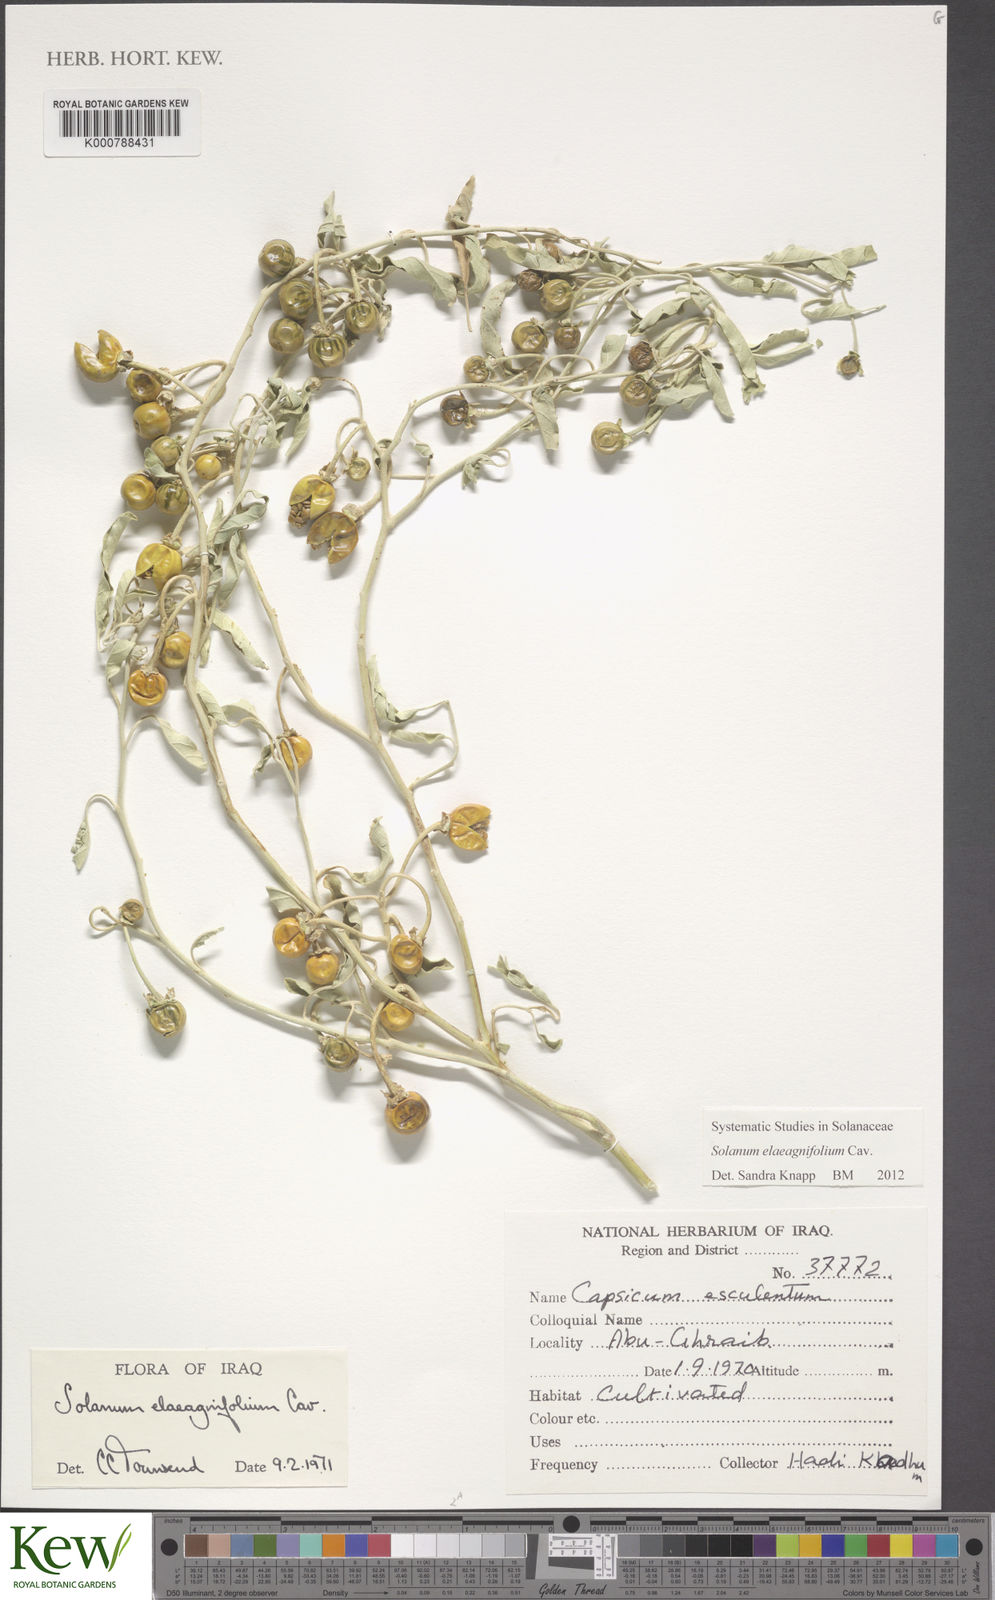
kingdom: Plantae
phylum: Tracheophyta
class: Magnoliopsida
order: Solanales
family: Solanaceae
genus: Solanum
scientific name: Solanum elaeagnifolium
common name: Silverleaf nightshade
